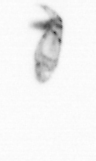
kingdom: Animalia
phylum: Arthropoda
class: Copepoda
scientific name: Copepoda
